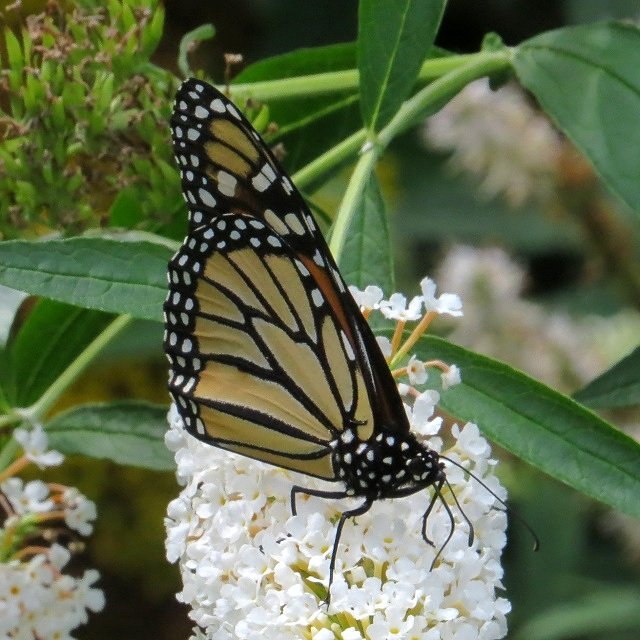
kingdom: Animalia
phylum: Arthropoda
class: Insecta
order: Lepidoptera
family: Nymphalidae
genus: Danaus
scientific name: Danaus plexippus
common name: Monarch
